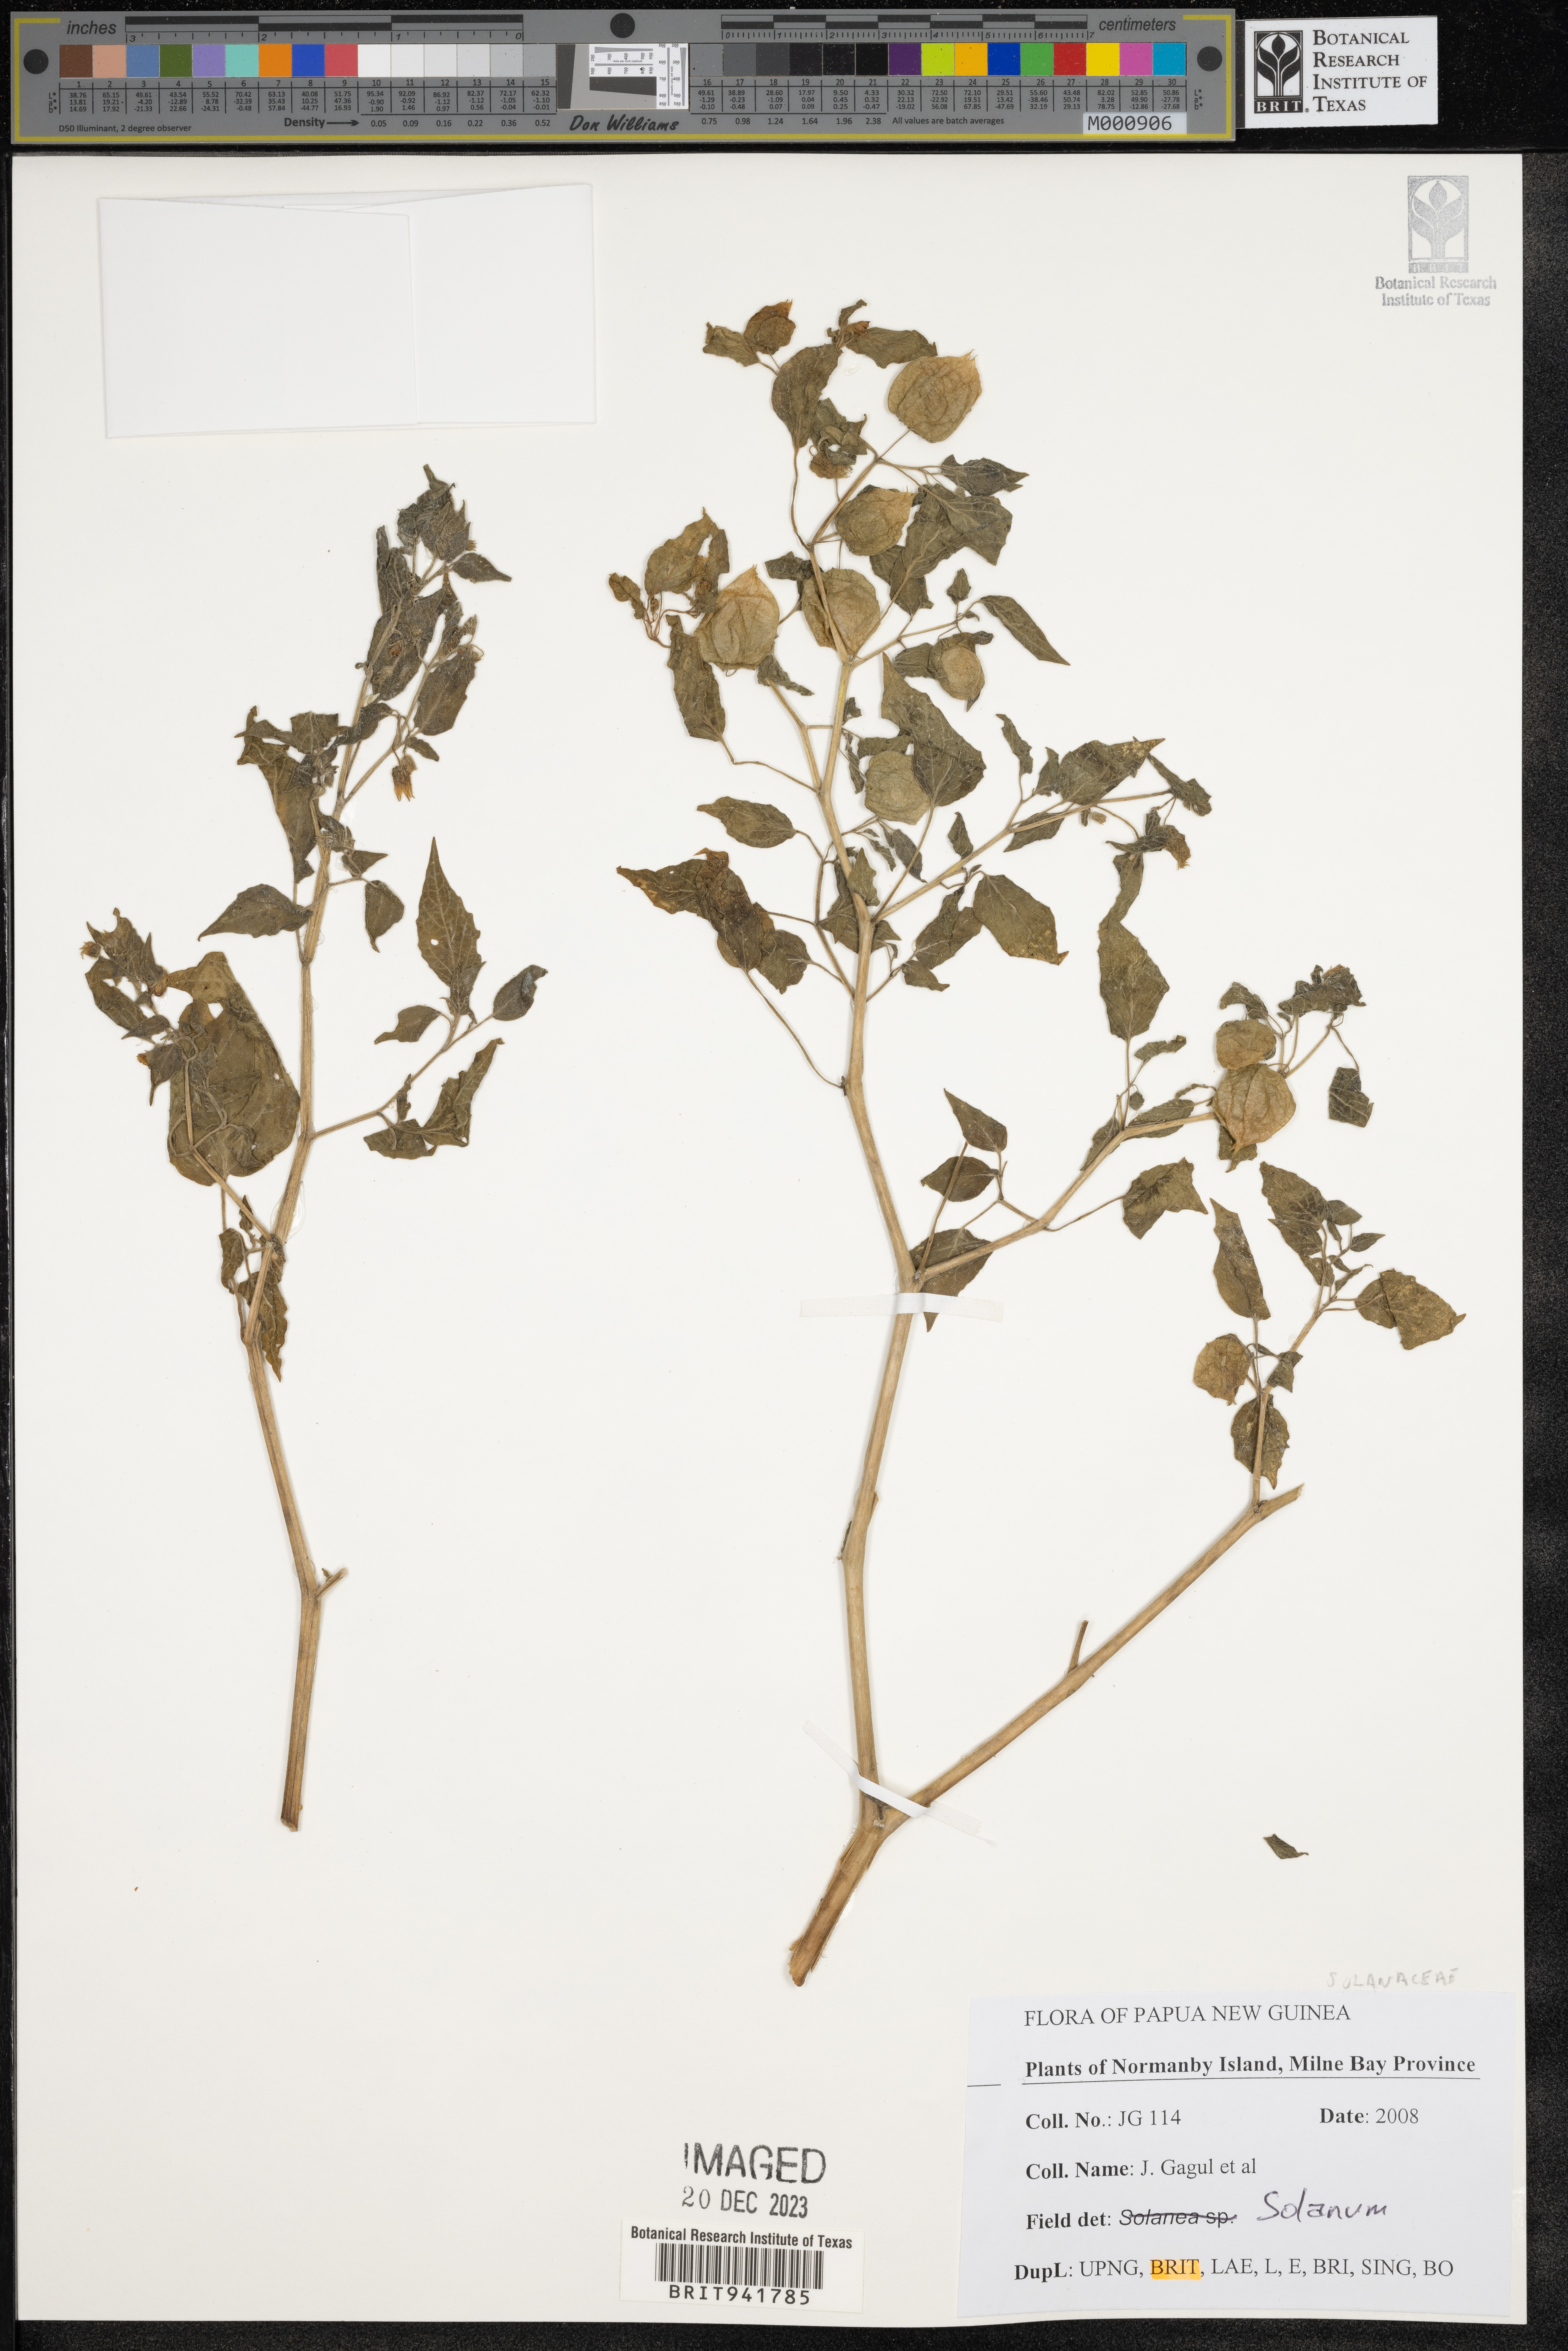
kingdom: Plantae
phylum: Tracheophyta
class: Magnoliopsida
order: Solanales
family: Solanaceae
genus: Solanum
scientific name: Solanum
